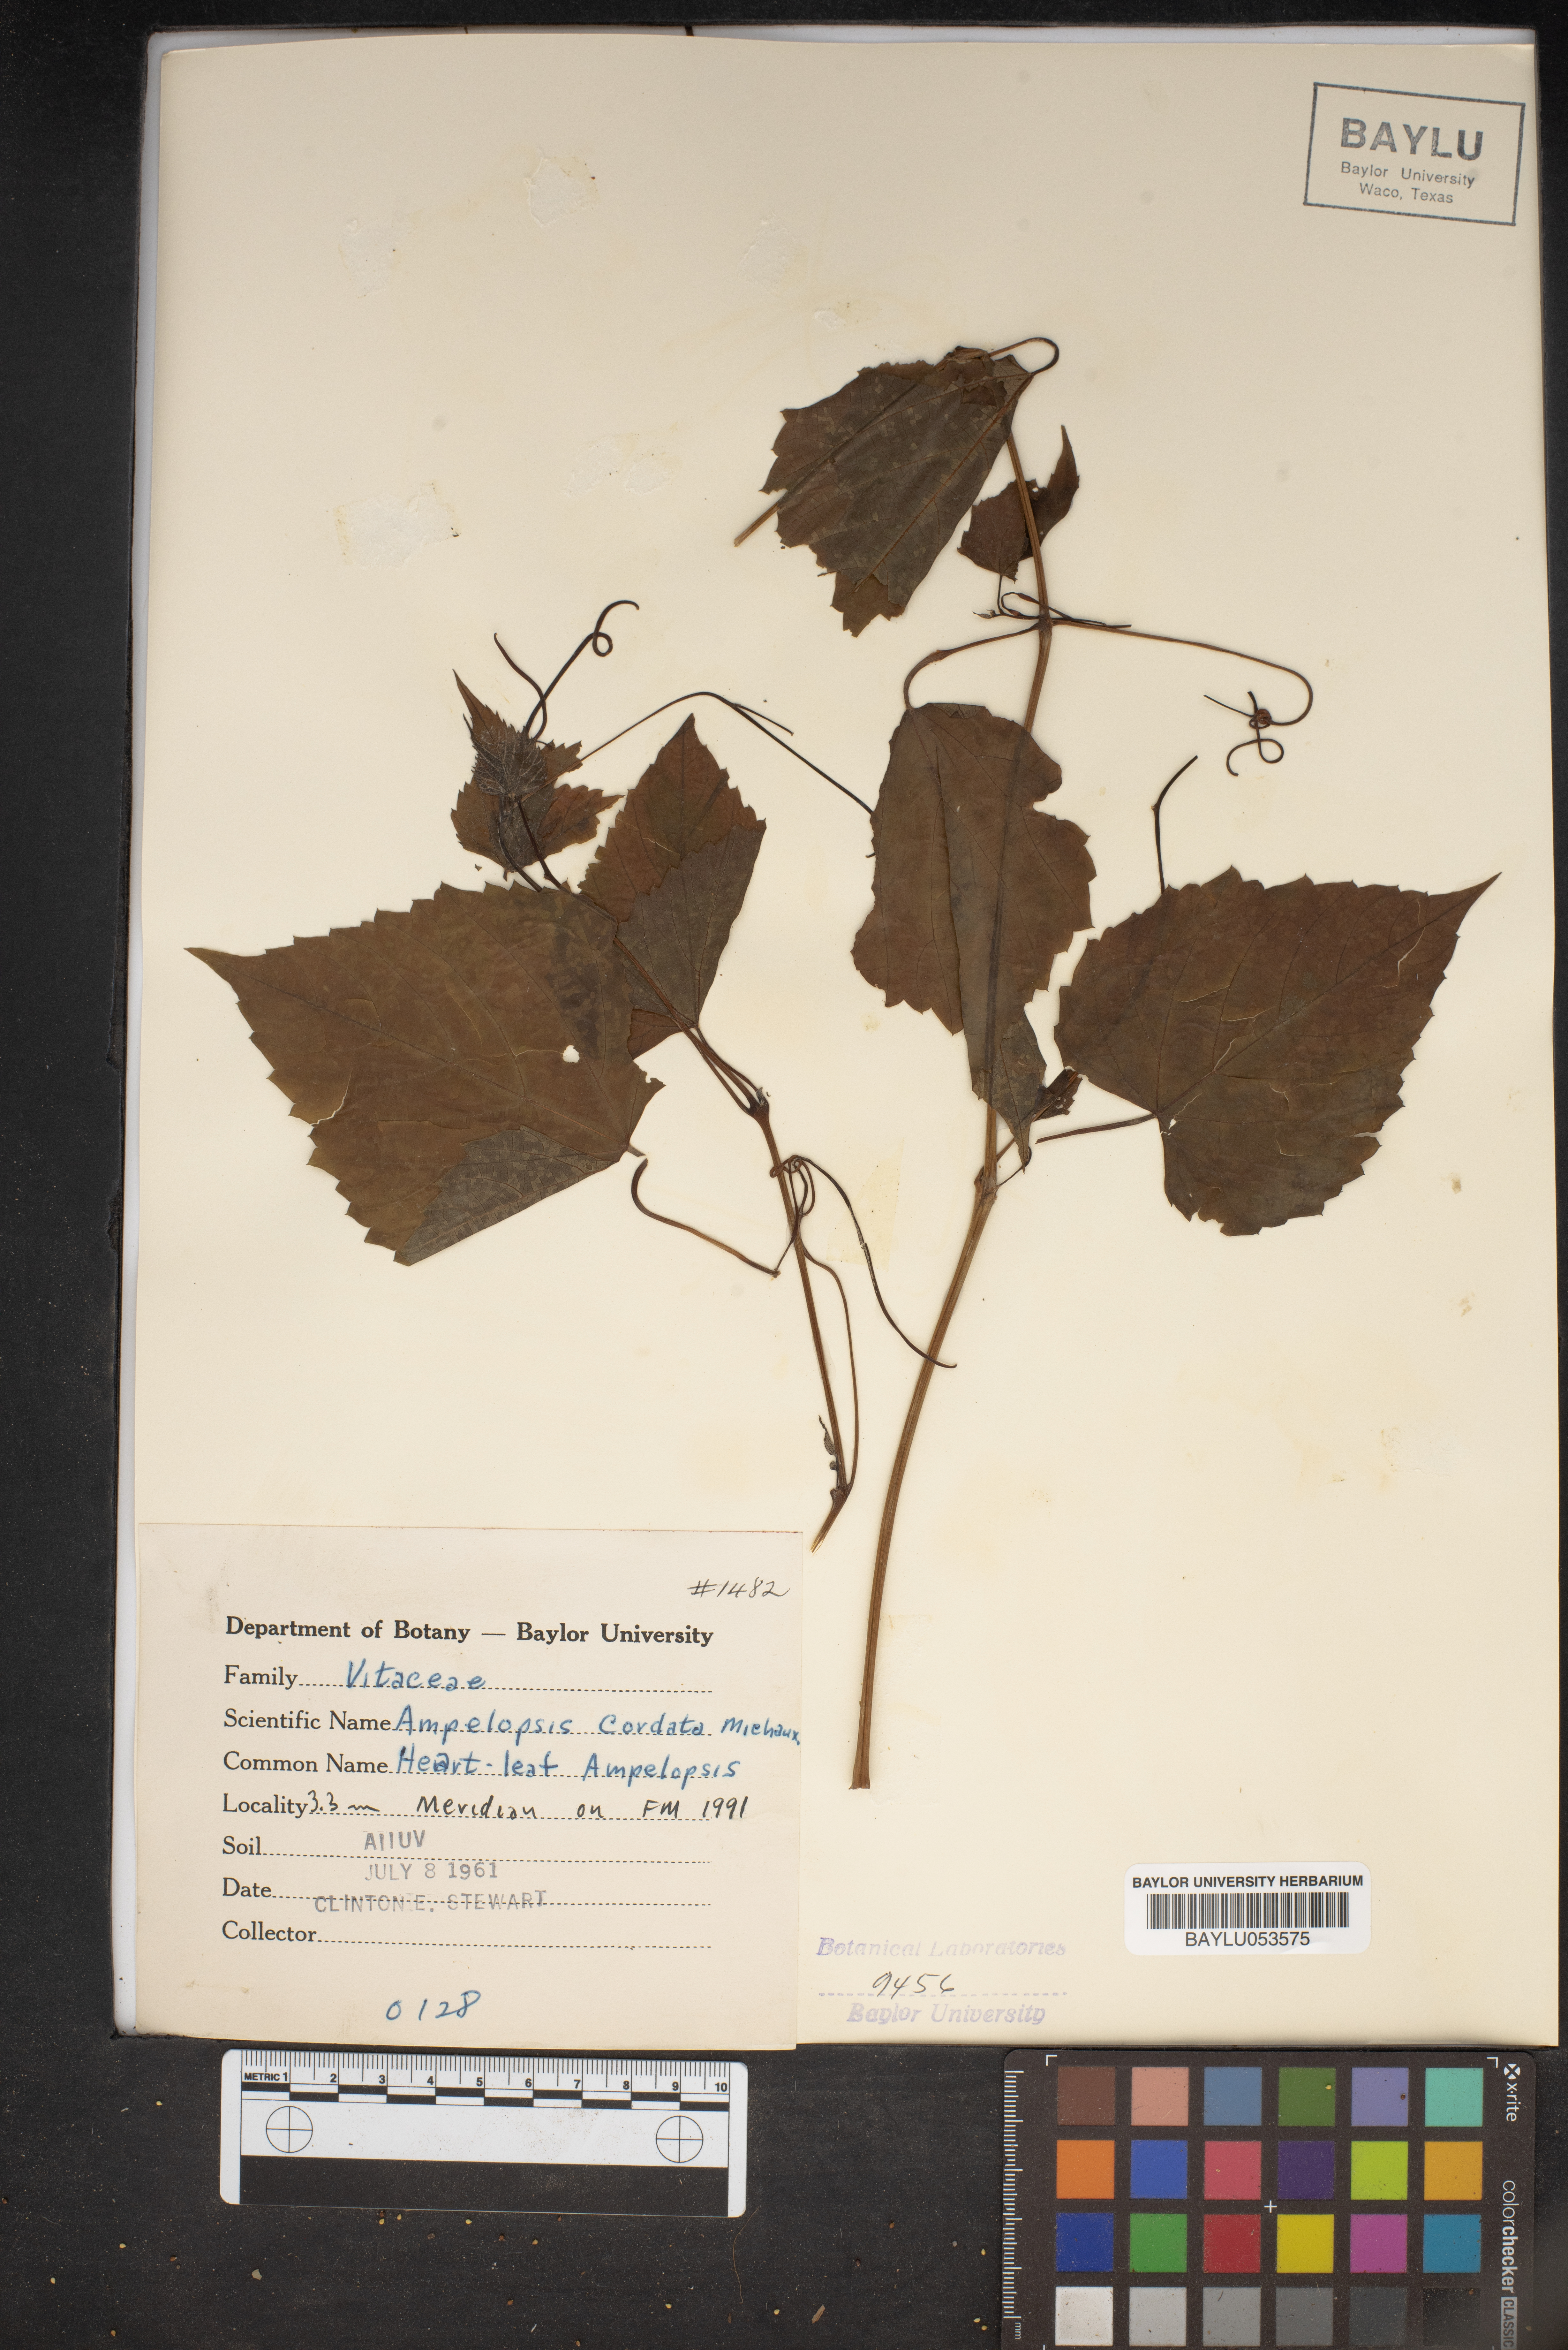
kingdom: Plantae
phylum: Tracheophyta
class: Magnoliopsida
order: Vitales
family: Vitaceae
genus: Ampelopsis
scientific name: Ampelopsis cordata
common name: Heart-leaf ampelopsis
